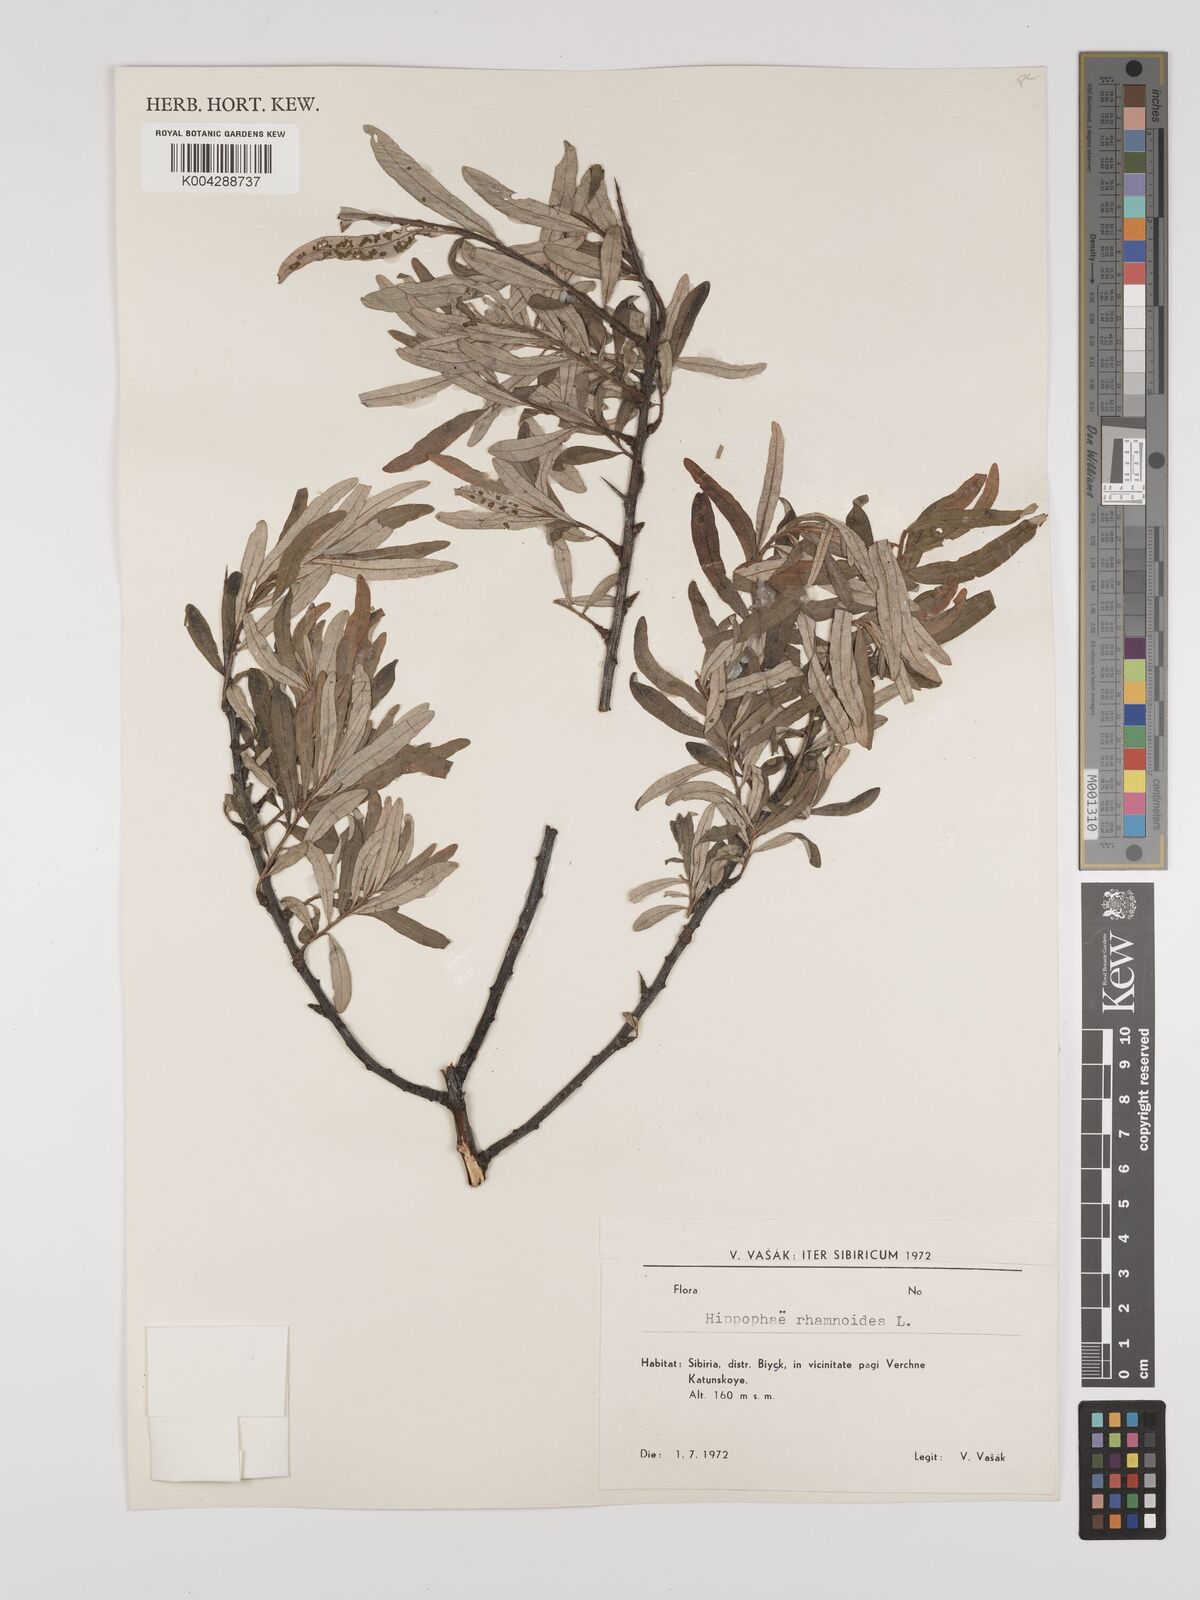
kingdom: Plantae
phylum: Tracheophyta
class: Magnoliopsida
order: Rosales
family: Elaeagnaceae
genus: Hippophae
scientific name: Hippophae rhamnoides
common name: Sea-buckthorn
